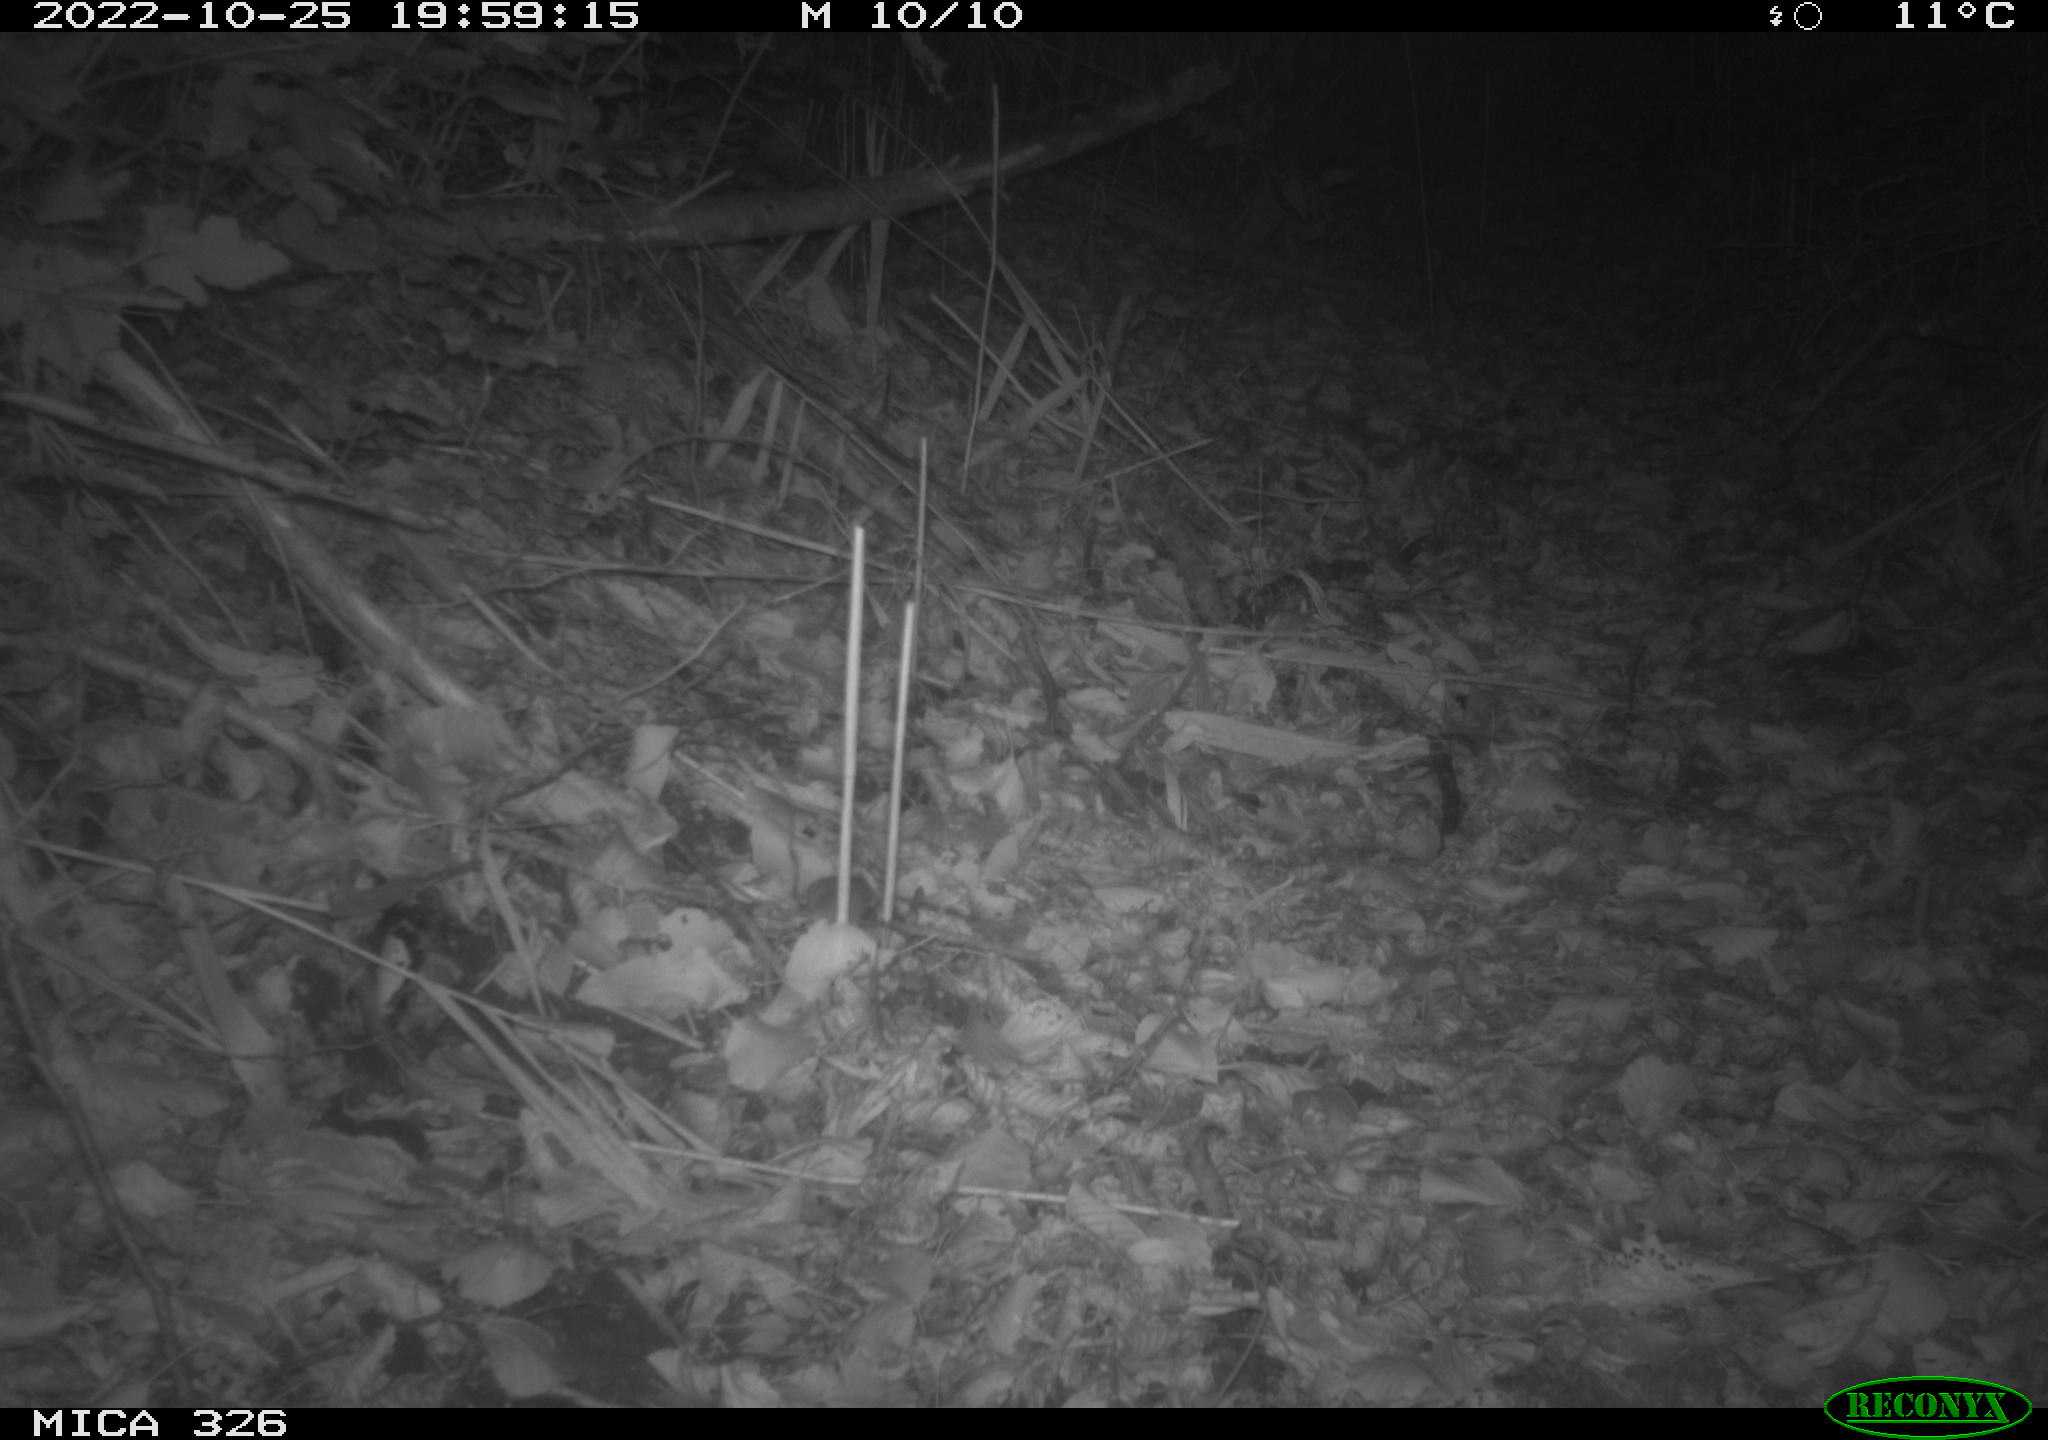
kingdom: Animalia
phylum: Chordata
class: Mammalia
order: Rodentia
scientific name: Rodentia
